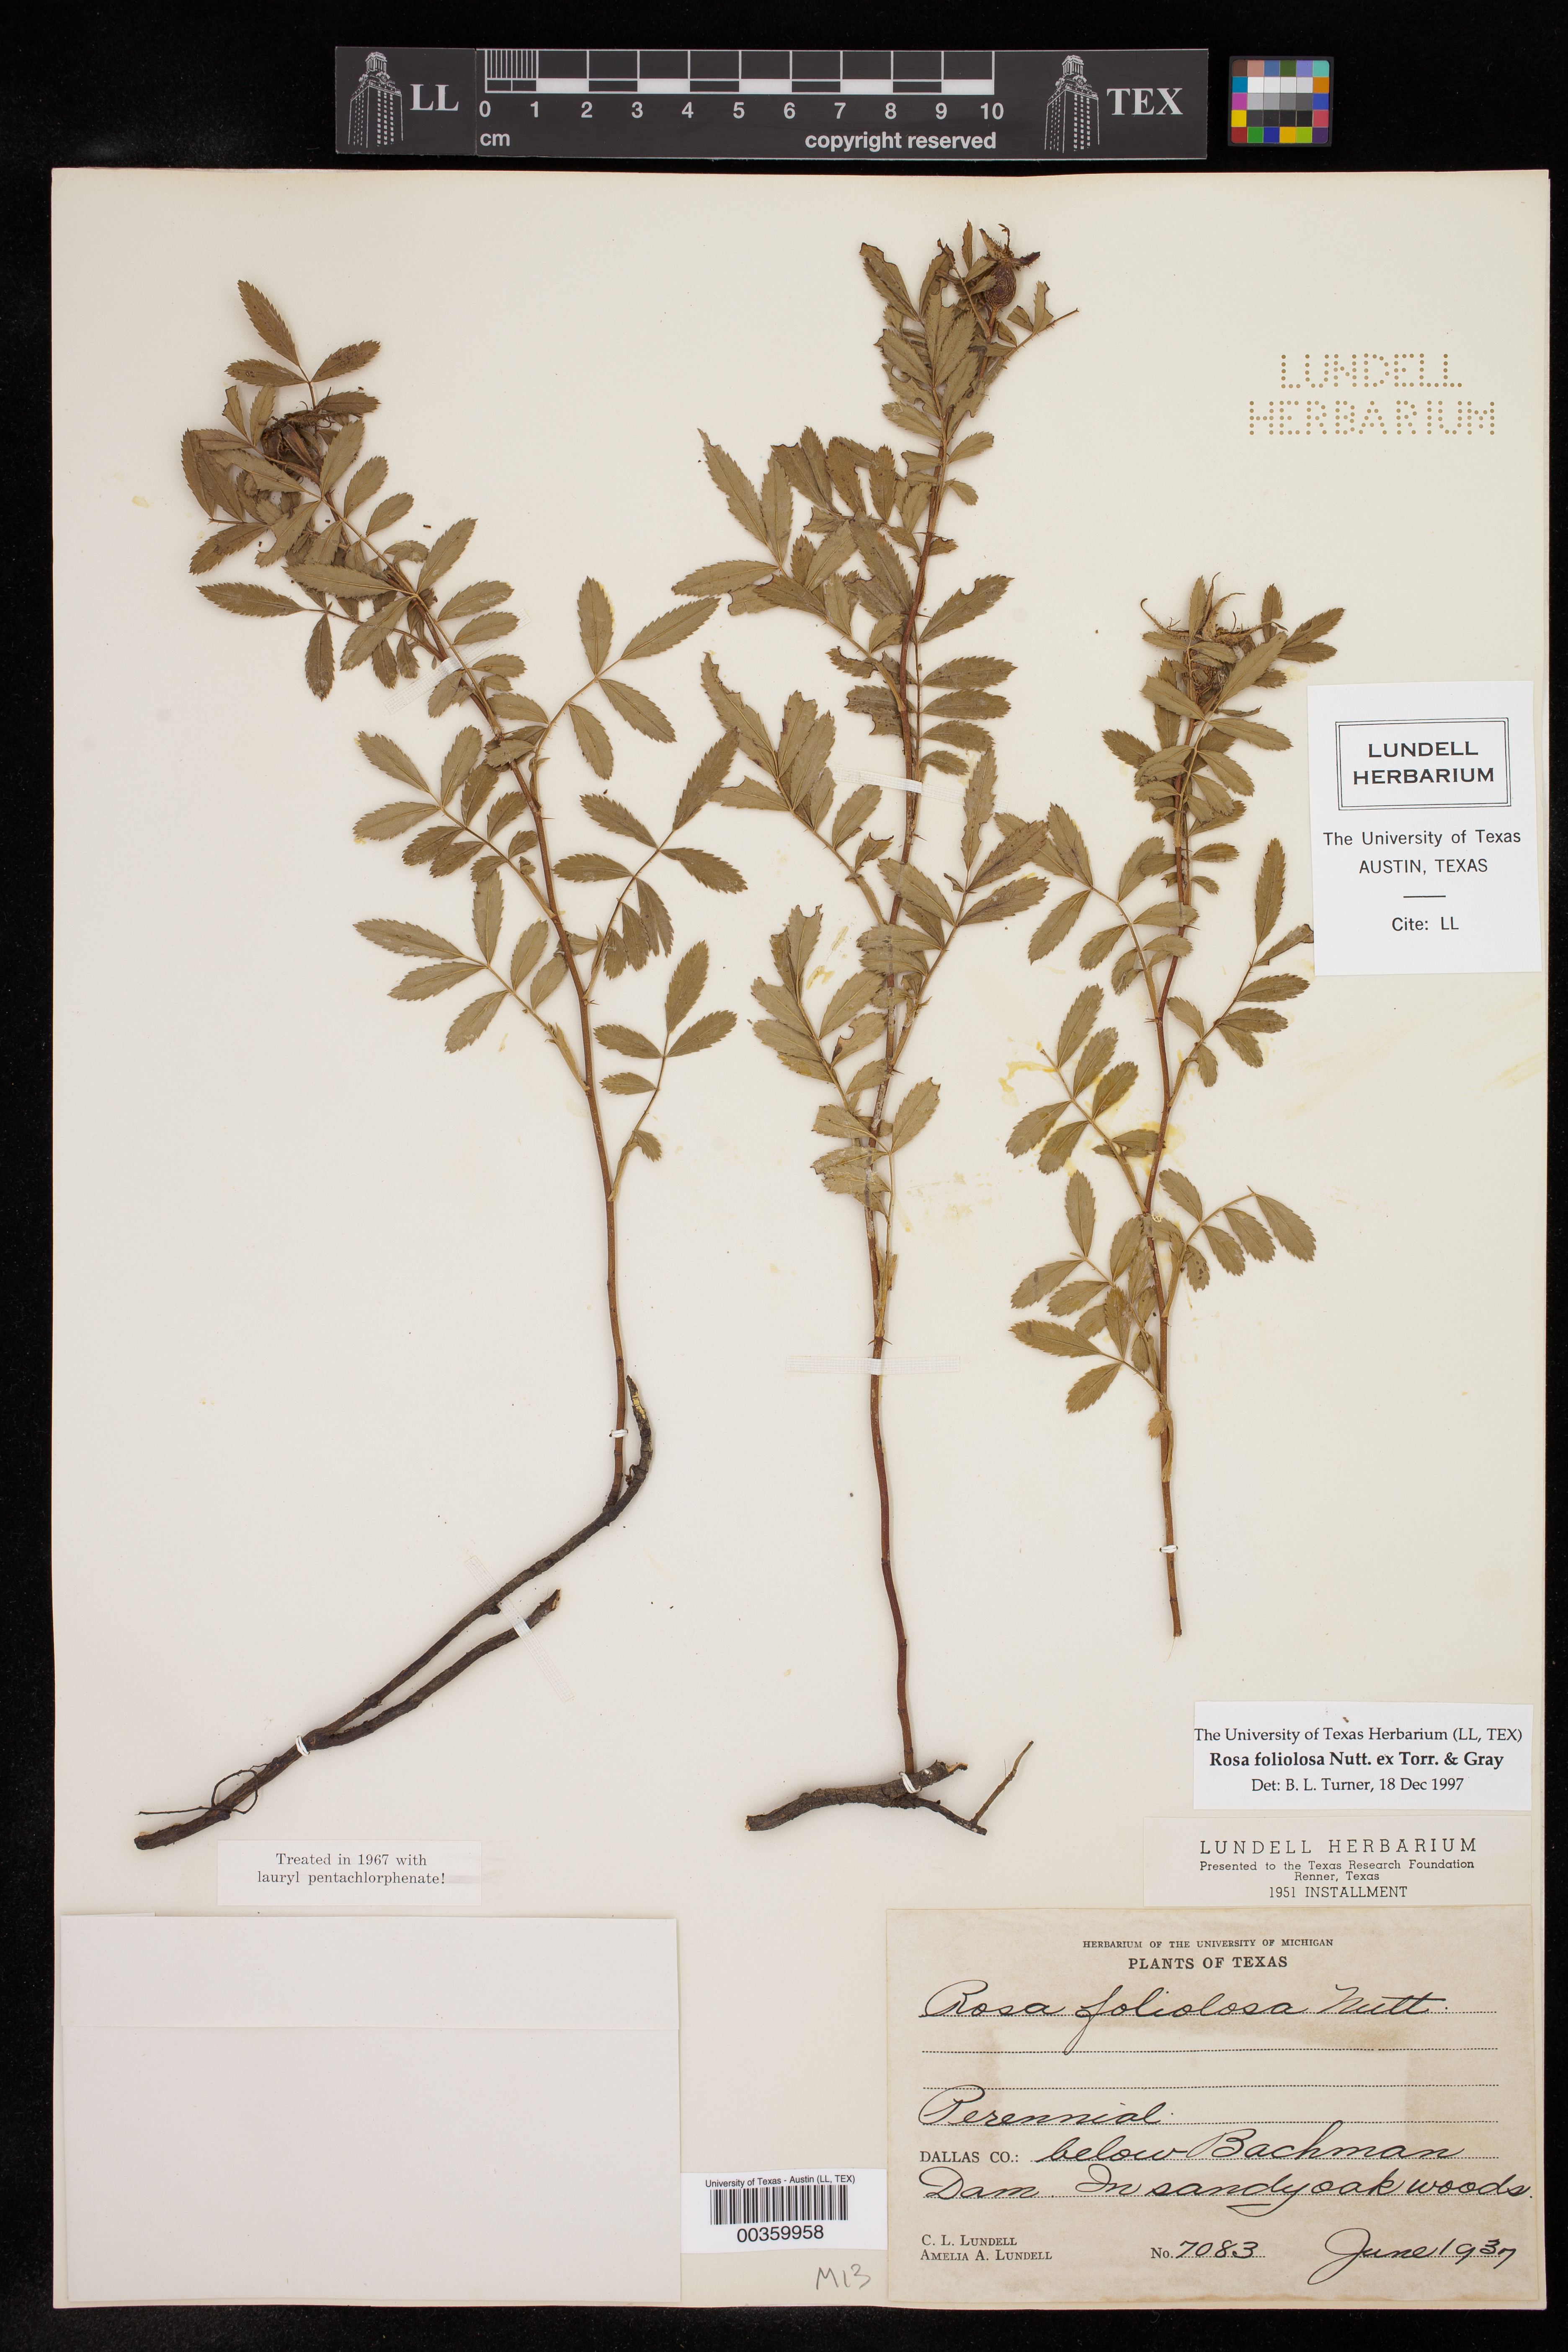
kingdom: Plantae
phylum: Tracheophyta
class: Magnoliopsida
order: Rosales
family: Rosaceae
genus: Rosa
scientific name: Rosa foliolosa
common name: White prairie rose
